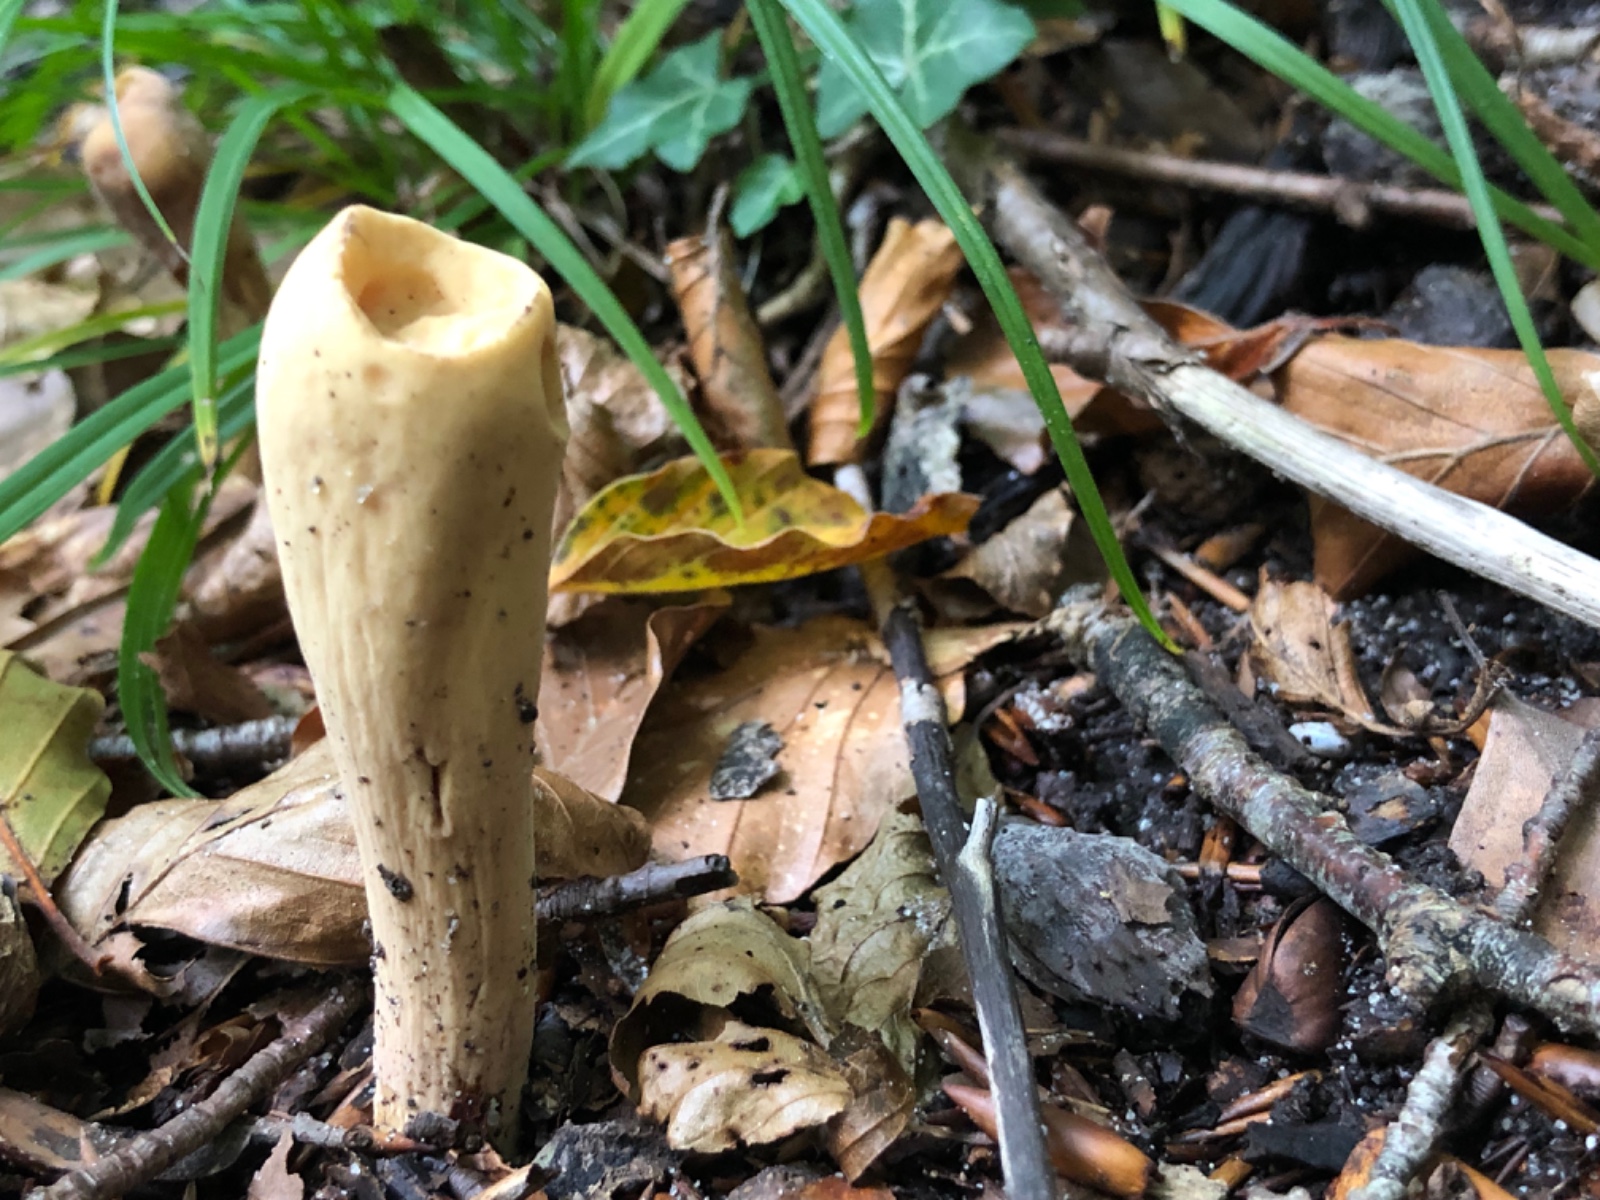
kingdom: Fungi
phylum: Basidiomycota
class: Agaricomycetes
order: Gomphales
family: Clavariadelphaceae
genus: Clavariadelphus
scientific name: Clavariadelphus pistillaris
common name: herkules-kæmpekølle
